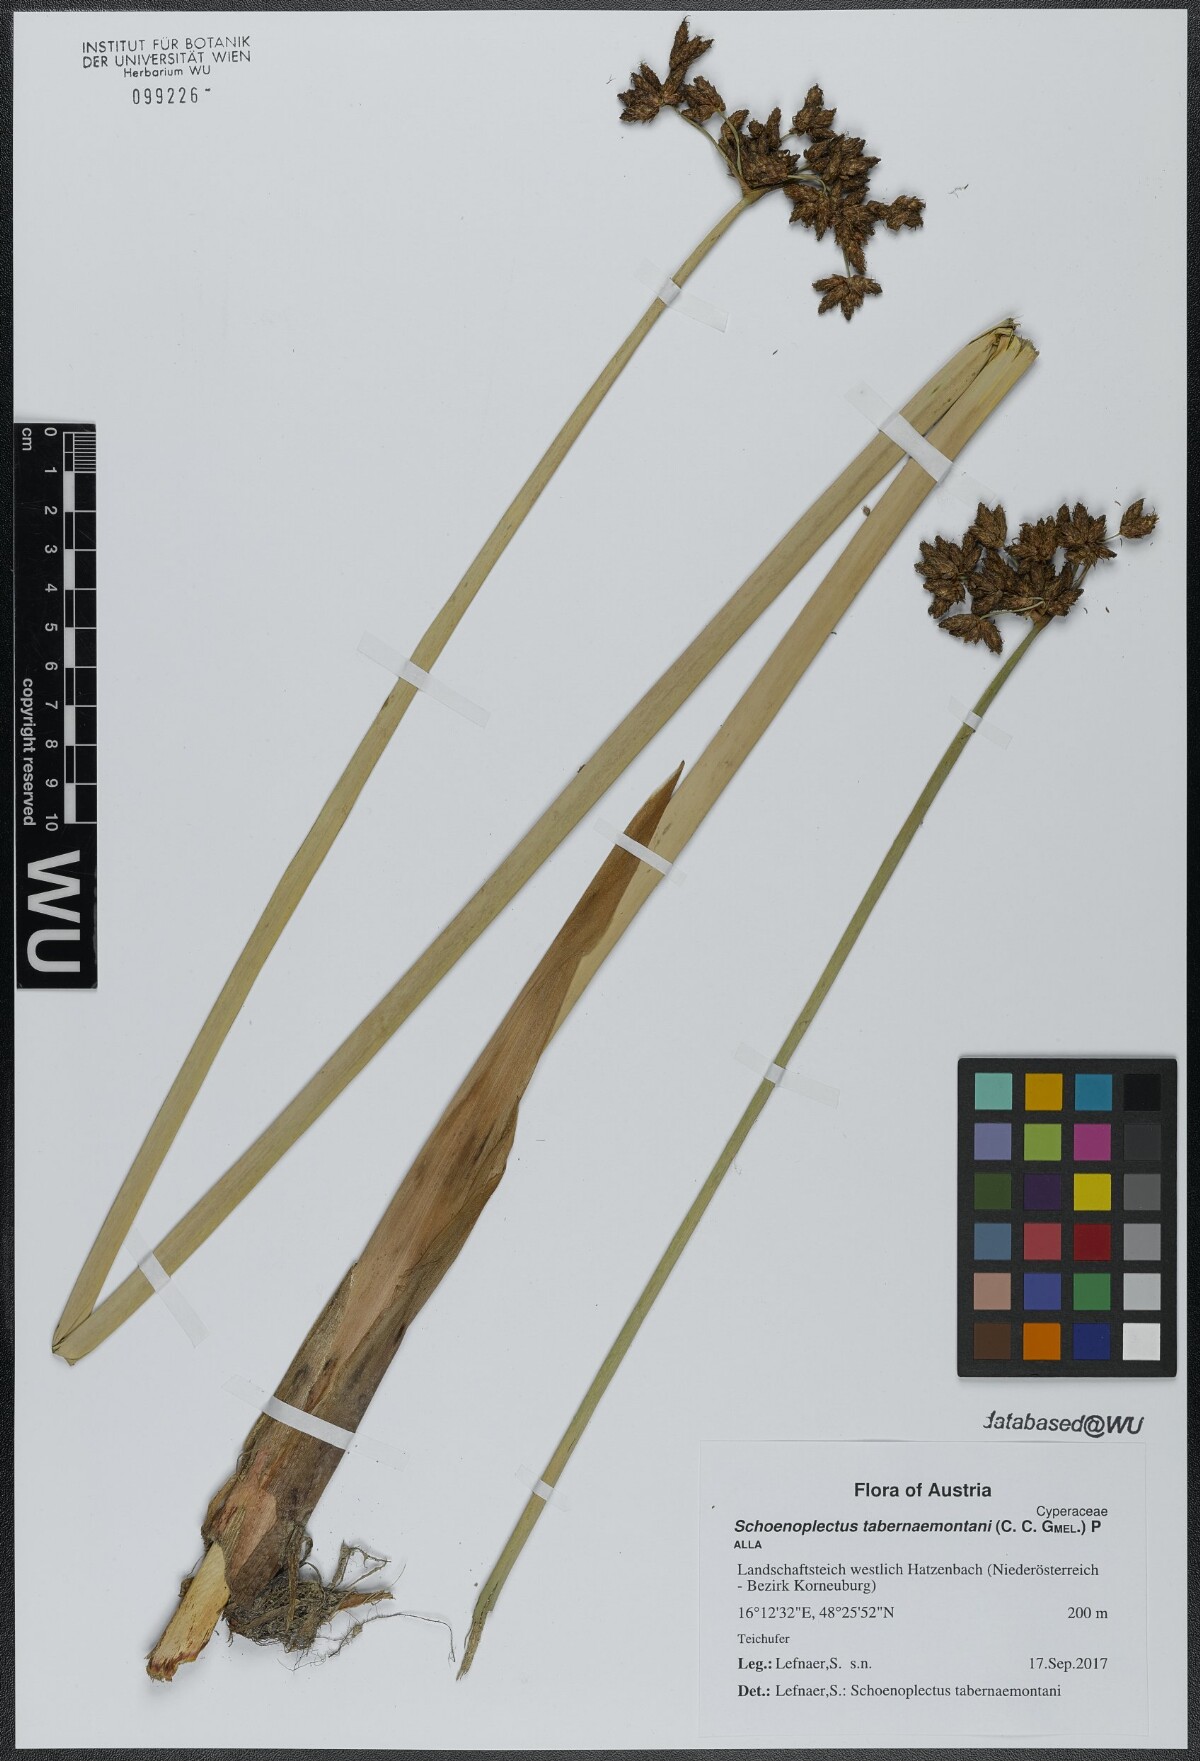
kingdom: Plantae
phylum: Tracheophyta
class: Liliopsida
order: Poales
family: Cyperaceae
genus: Schoenoplectus
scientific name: Schoenoplectus tabernaemontani
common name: Grey club-rush
